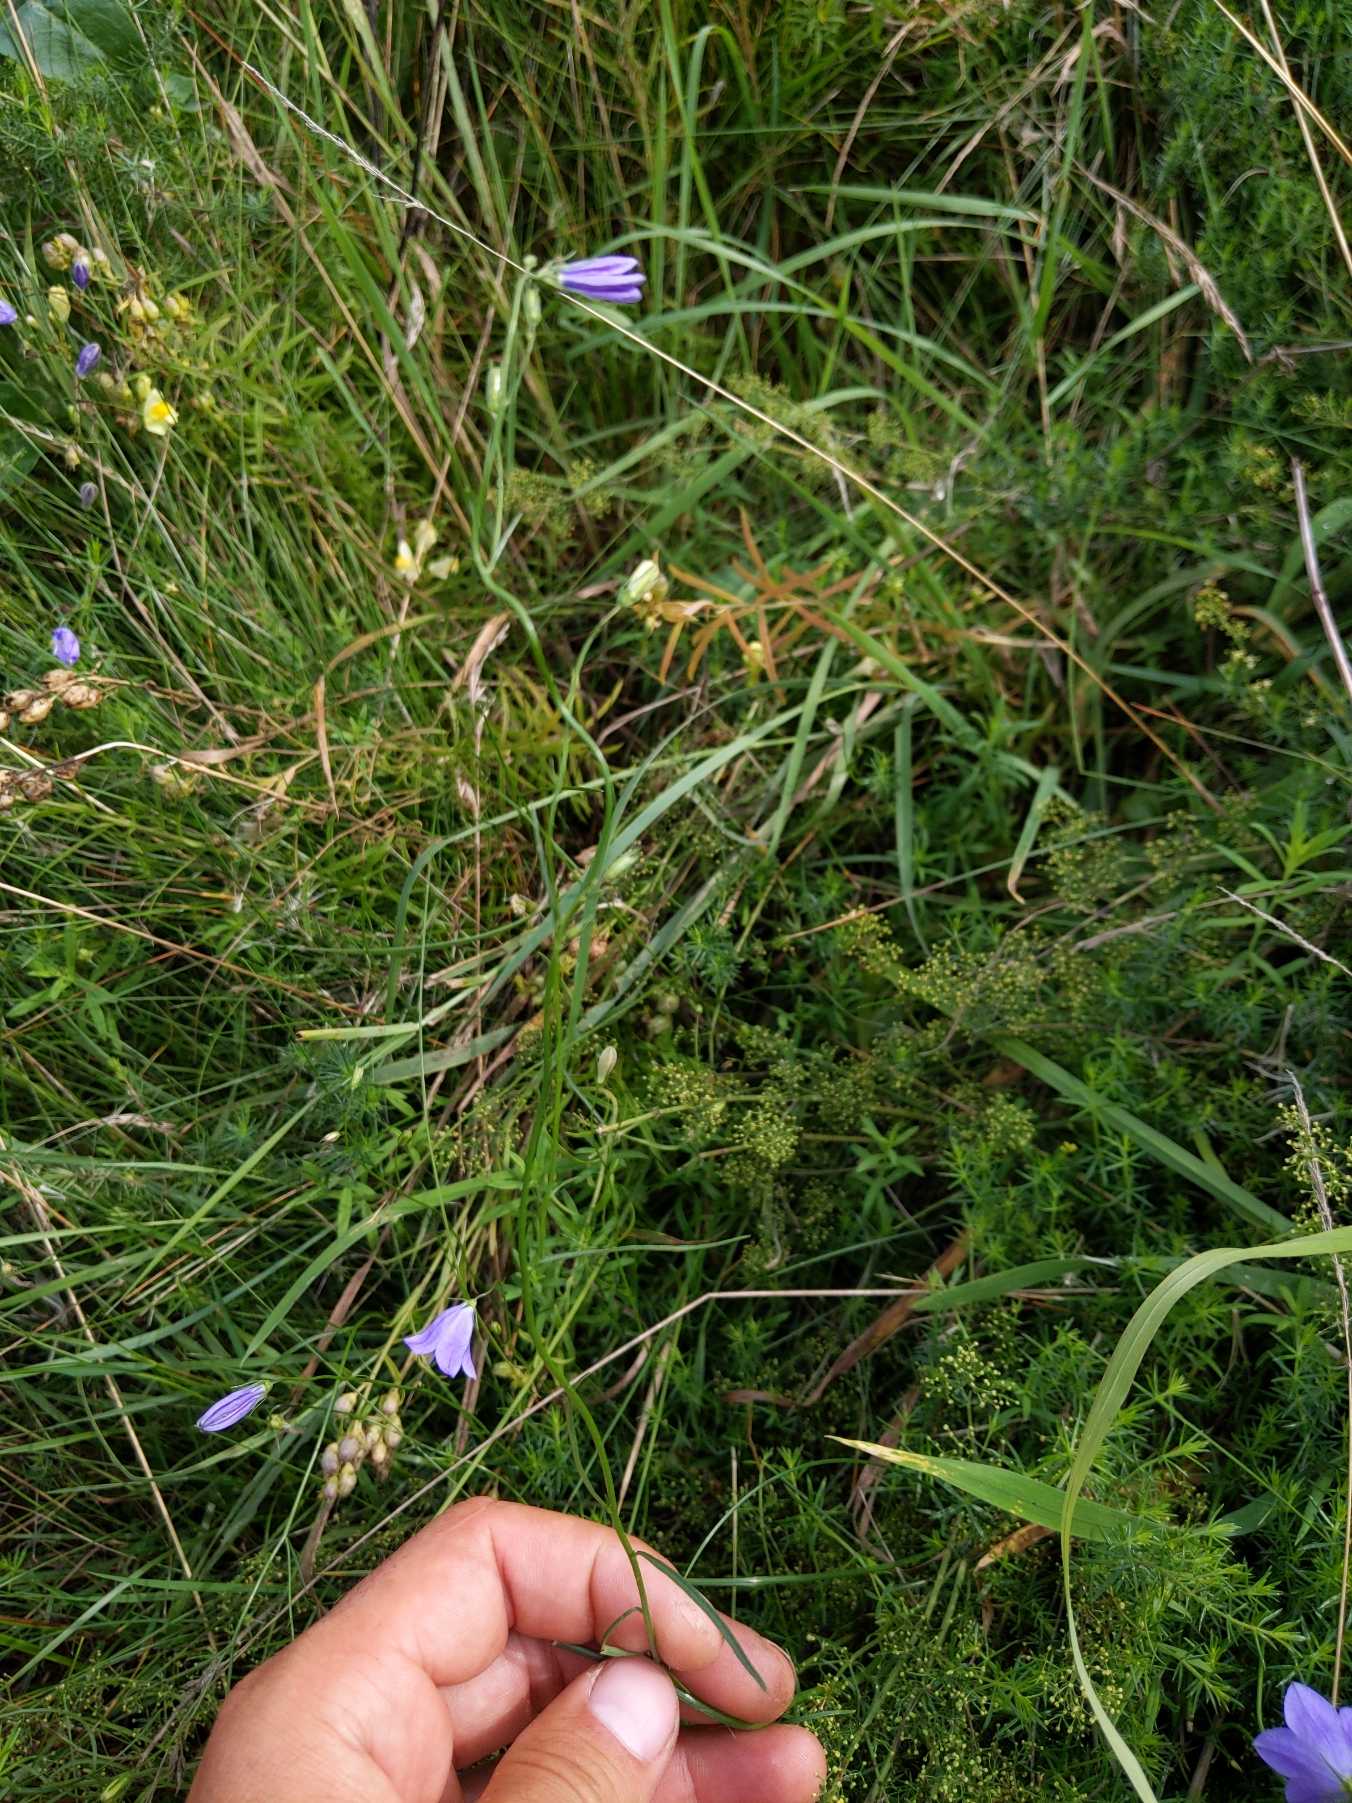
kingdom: Plantae
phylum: Tracheophyta
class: Magnoliopsida
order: Asterales
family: Campanulaceae
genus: Campanula
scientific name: Campanula rotundifolia
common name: Liden klokke
